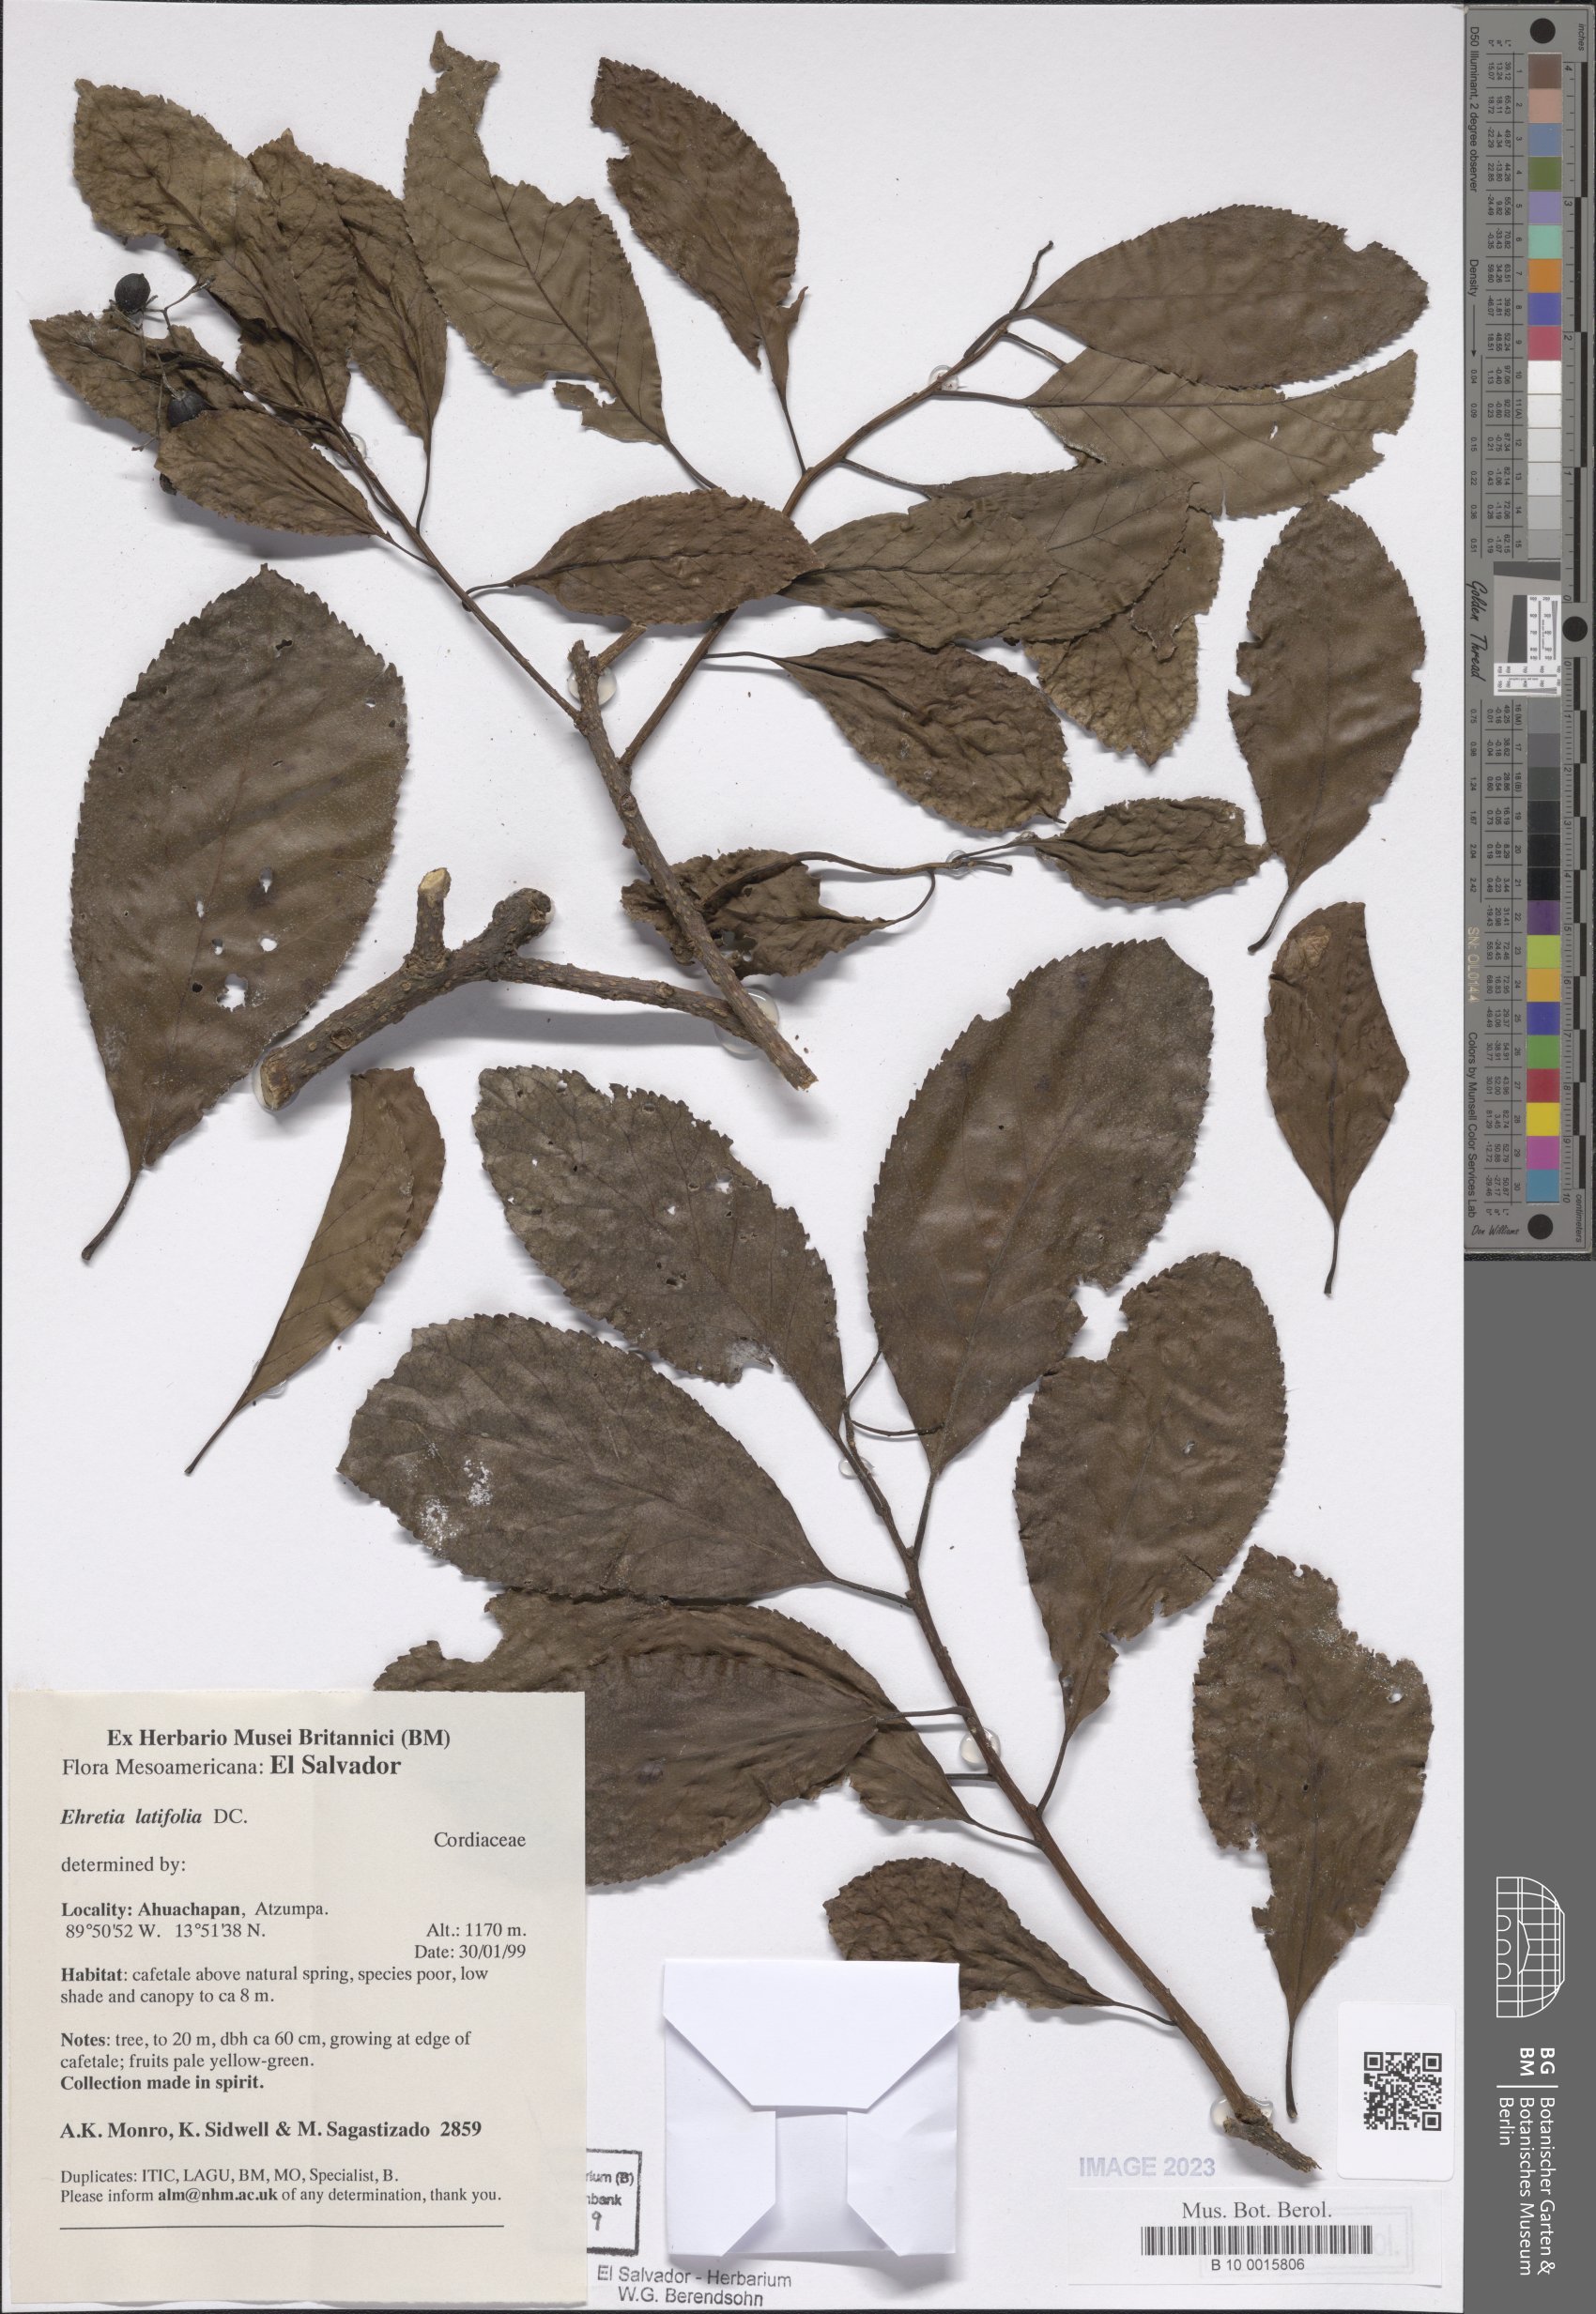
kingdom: Plantae
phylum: Tracheophyta
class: Magnoliopsida
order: Boraginales
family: Ehretiaceae
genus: Ehretia
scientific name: Ehretia latifolia
